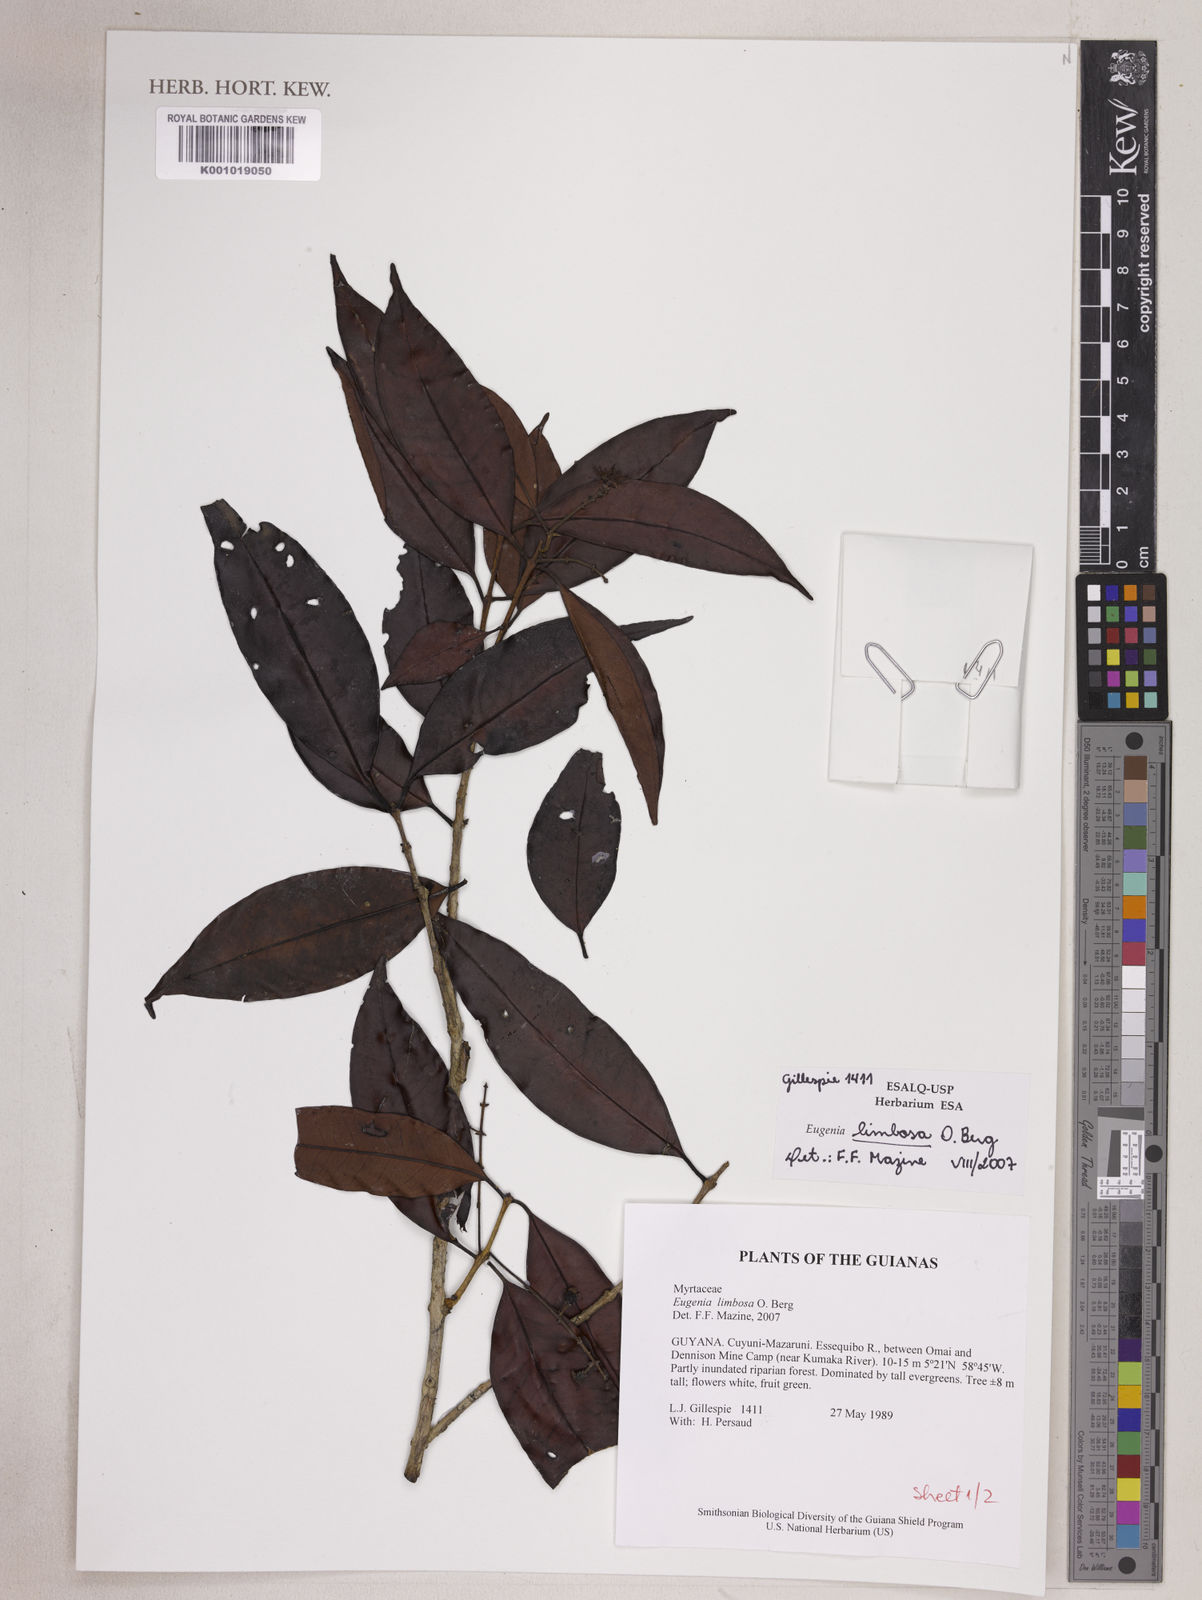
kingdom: Plantae
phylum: Tracheophyta
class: Magnoliopsida
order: Myrtales
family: Myrtaceae
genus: Eugenia
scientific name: Eugenia limbosa
